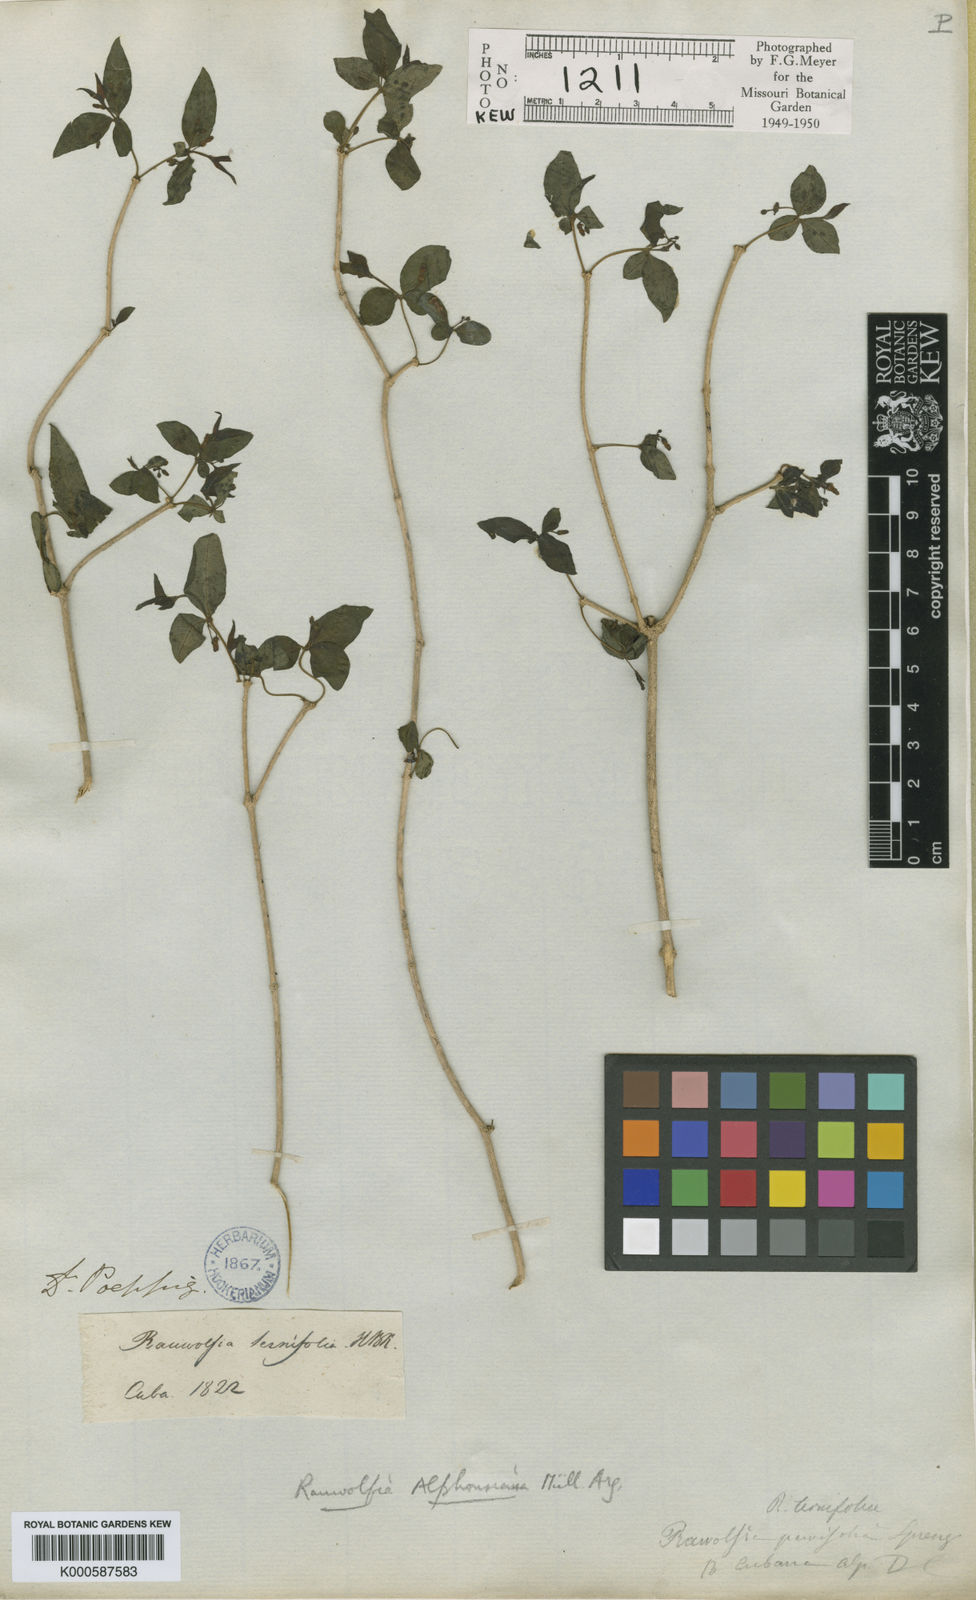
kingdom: Plantae
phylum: Tracheophyta
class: Magnoliopsida
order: Gentianales
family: Apocynaceae
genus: Rauvolfia
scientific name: Rauvolfia
